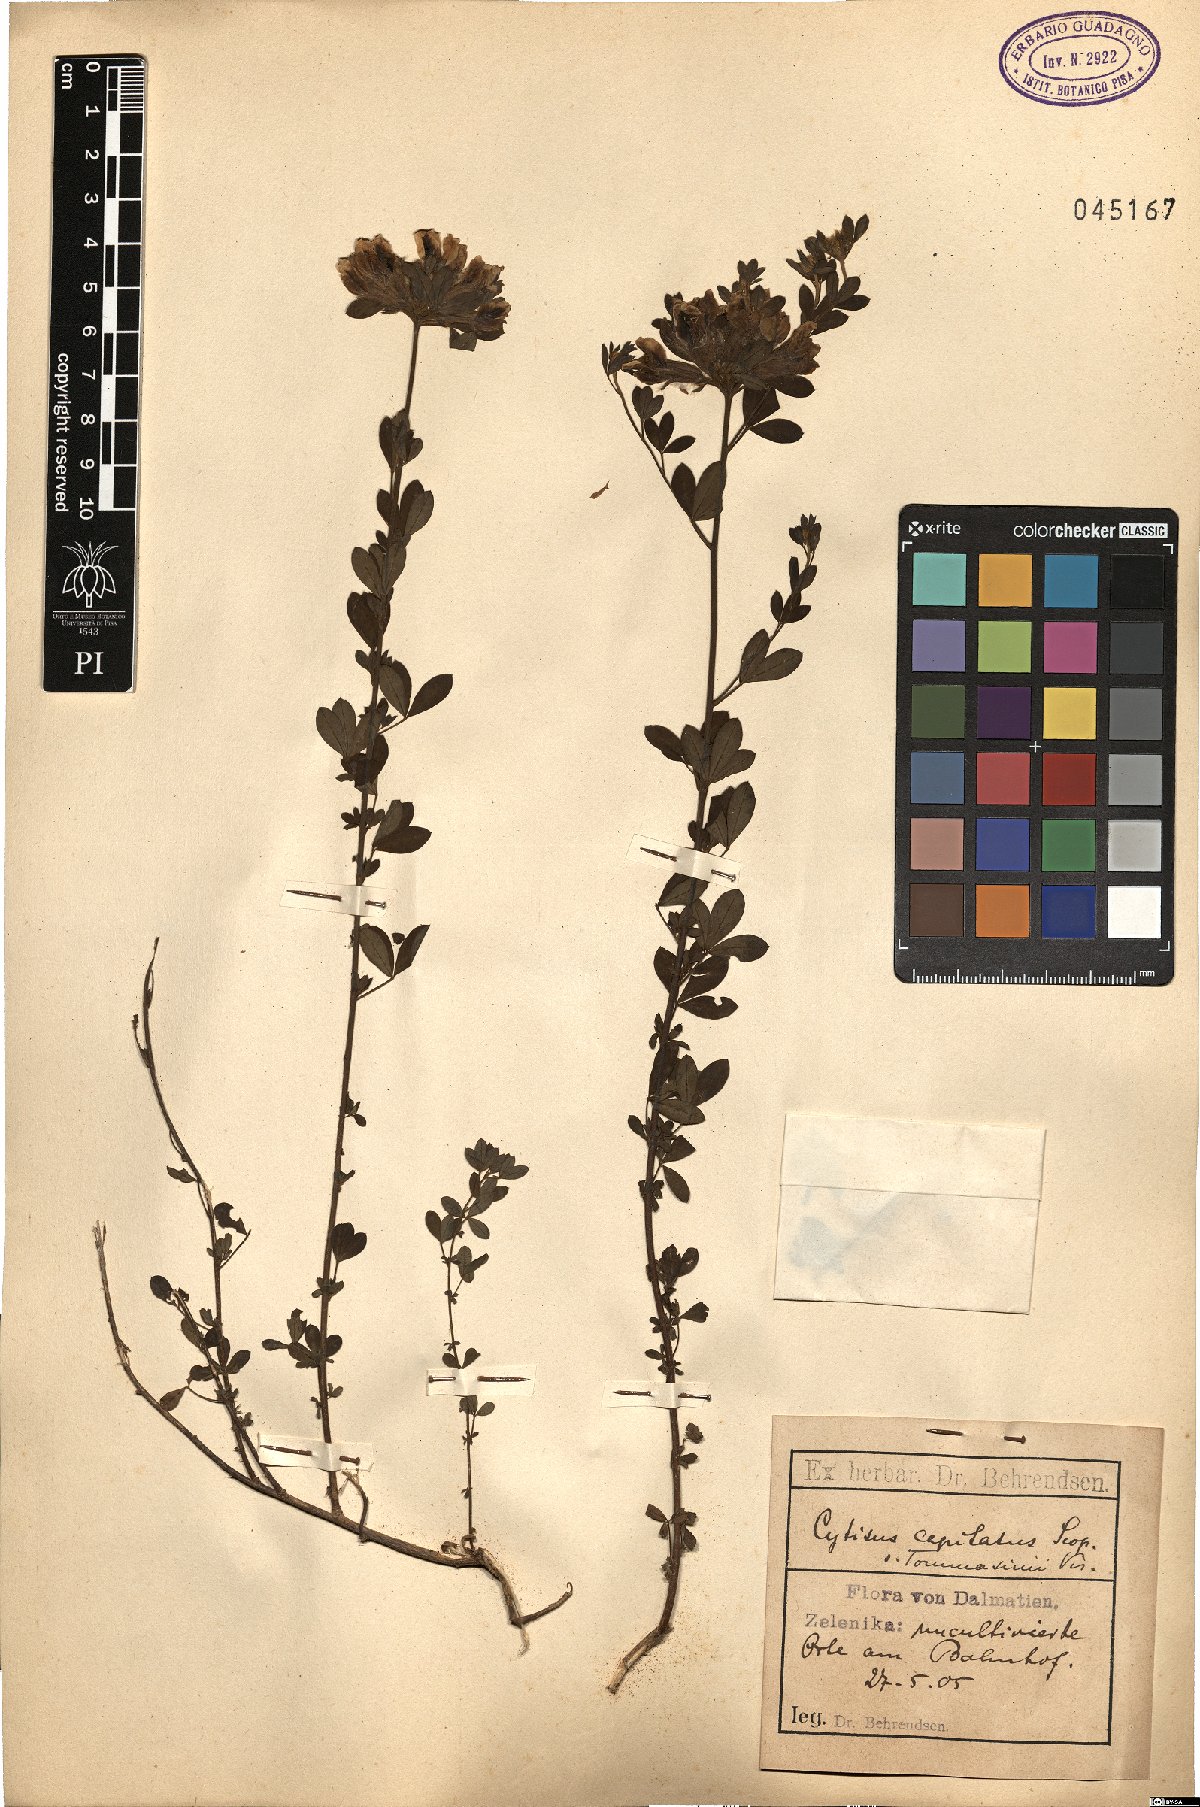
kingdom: Plantae
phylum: Tracheophyta
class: Magnoliopsida
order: Fabales
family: Fabaceae
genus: Chamaecytisus
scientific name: Chamaecytisus hirsutus
